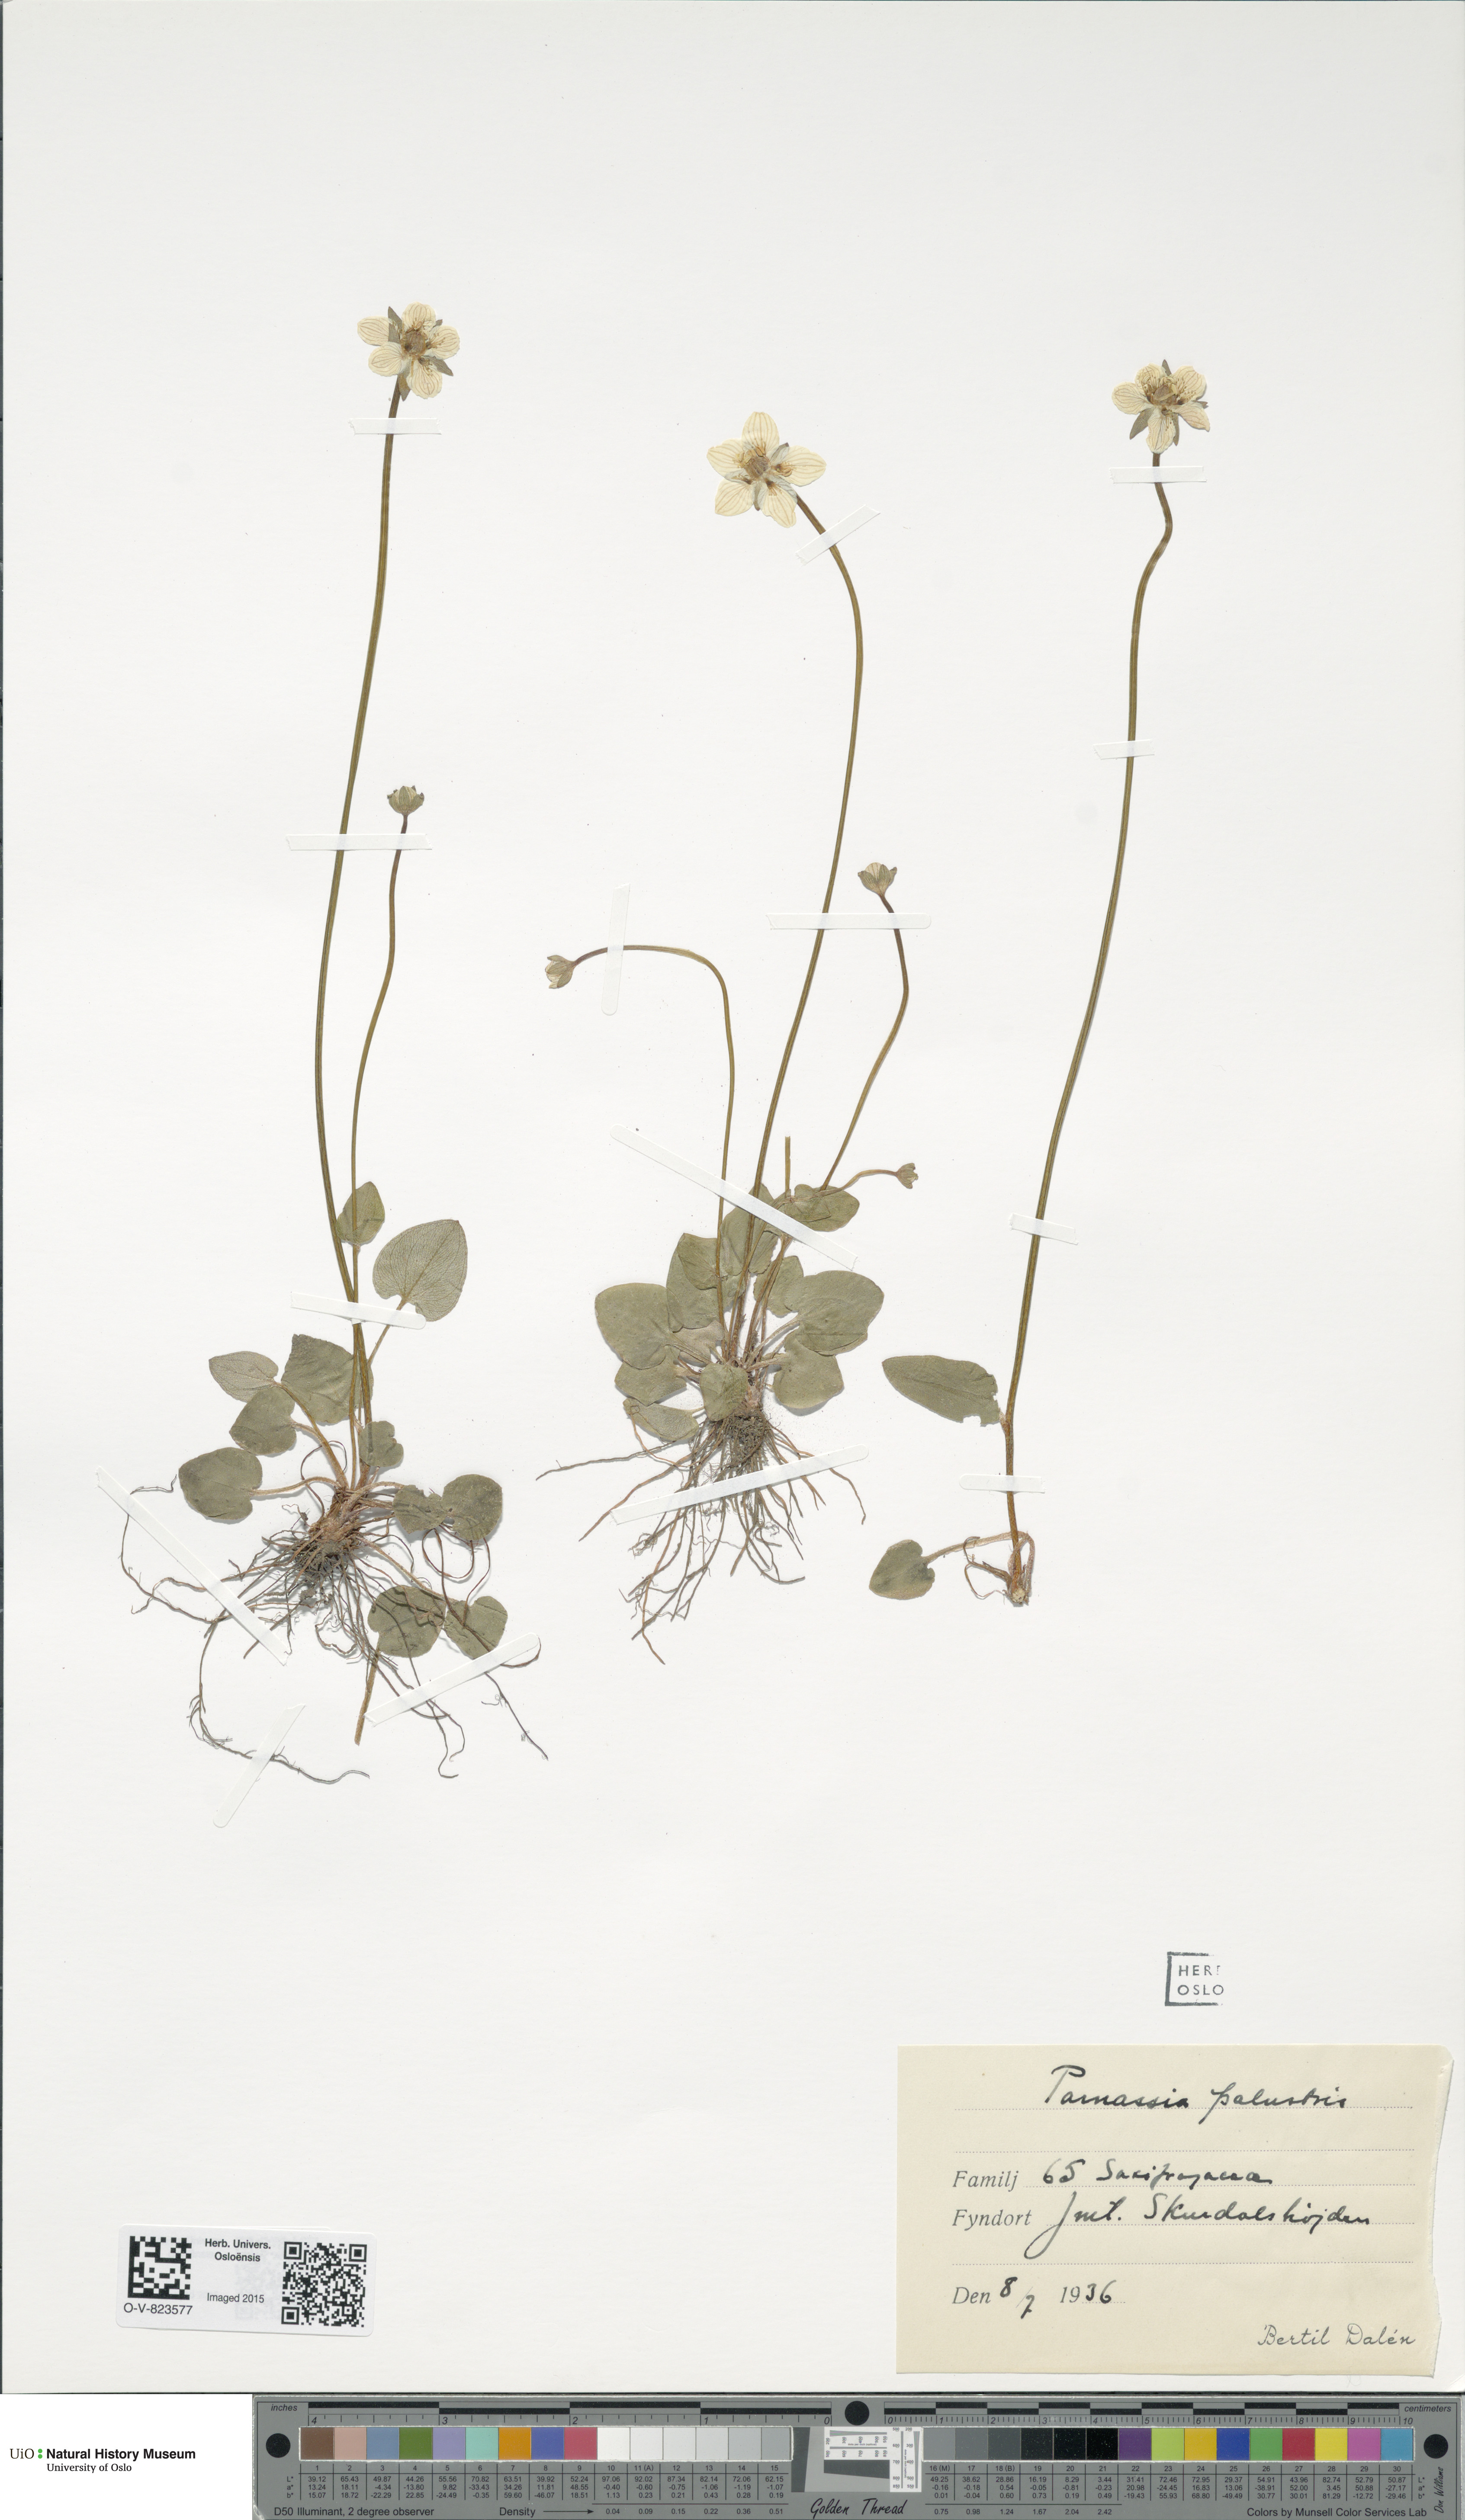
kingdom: Plantae
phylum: Tracheophyta
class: Magnoliopsida
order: Celastrales
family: Parnassiaceae
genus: Parnassia
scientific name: Parnassia palustris
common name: Grass-of-parnassus
